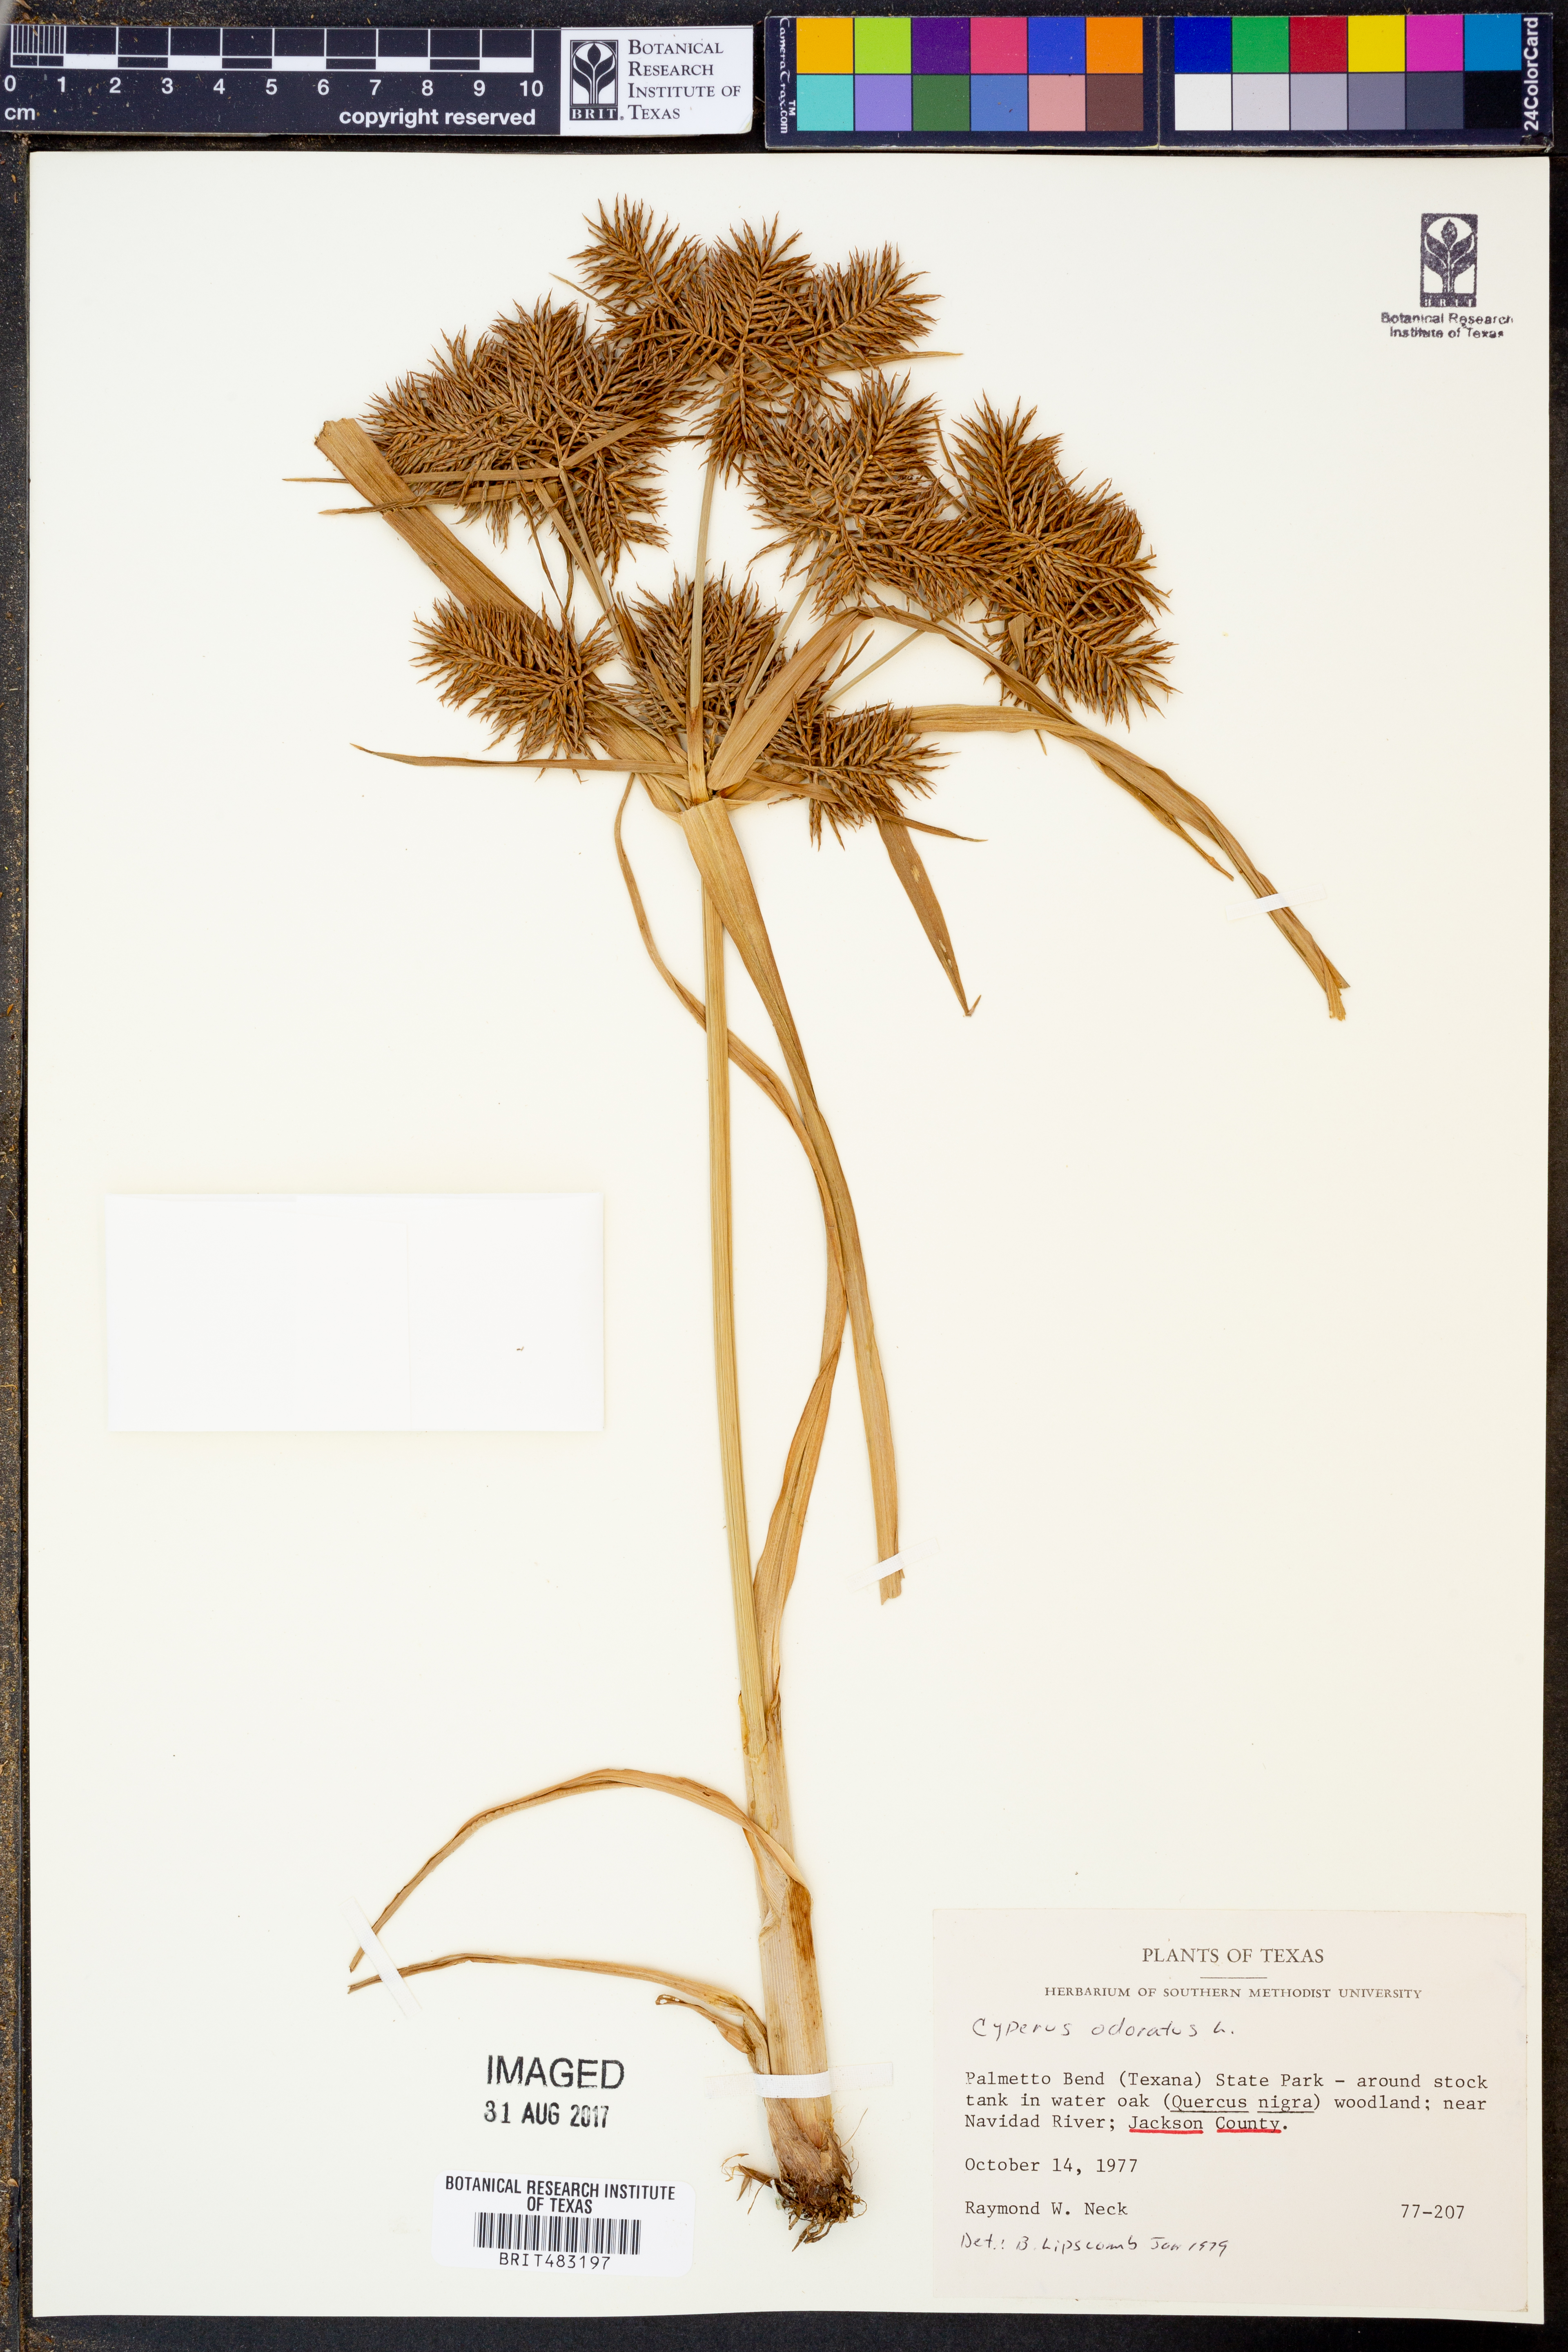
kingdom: Plantae
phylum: Tracheophyta
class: Liliopsida
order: Poales
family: Cyperaceae
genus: Cyperus
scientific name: Cyperus odoratus
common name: Fragrant flatsedge
